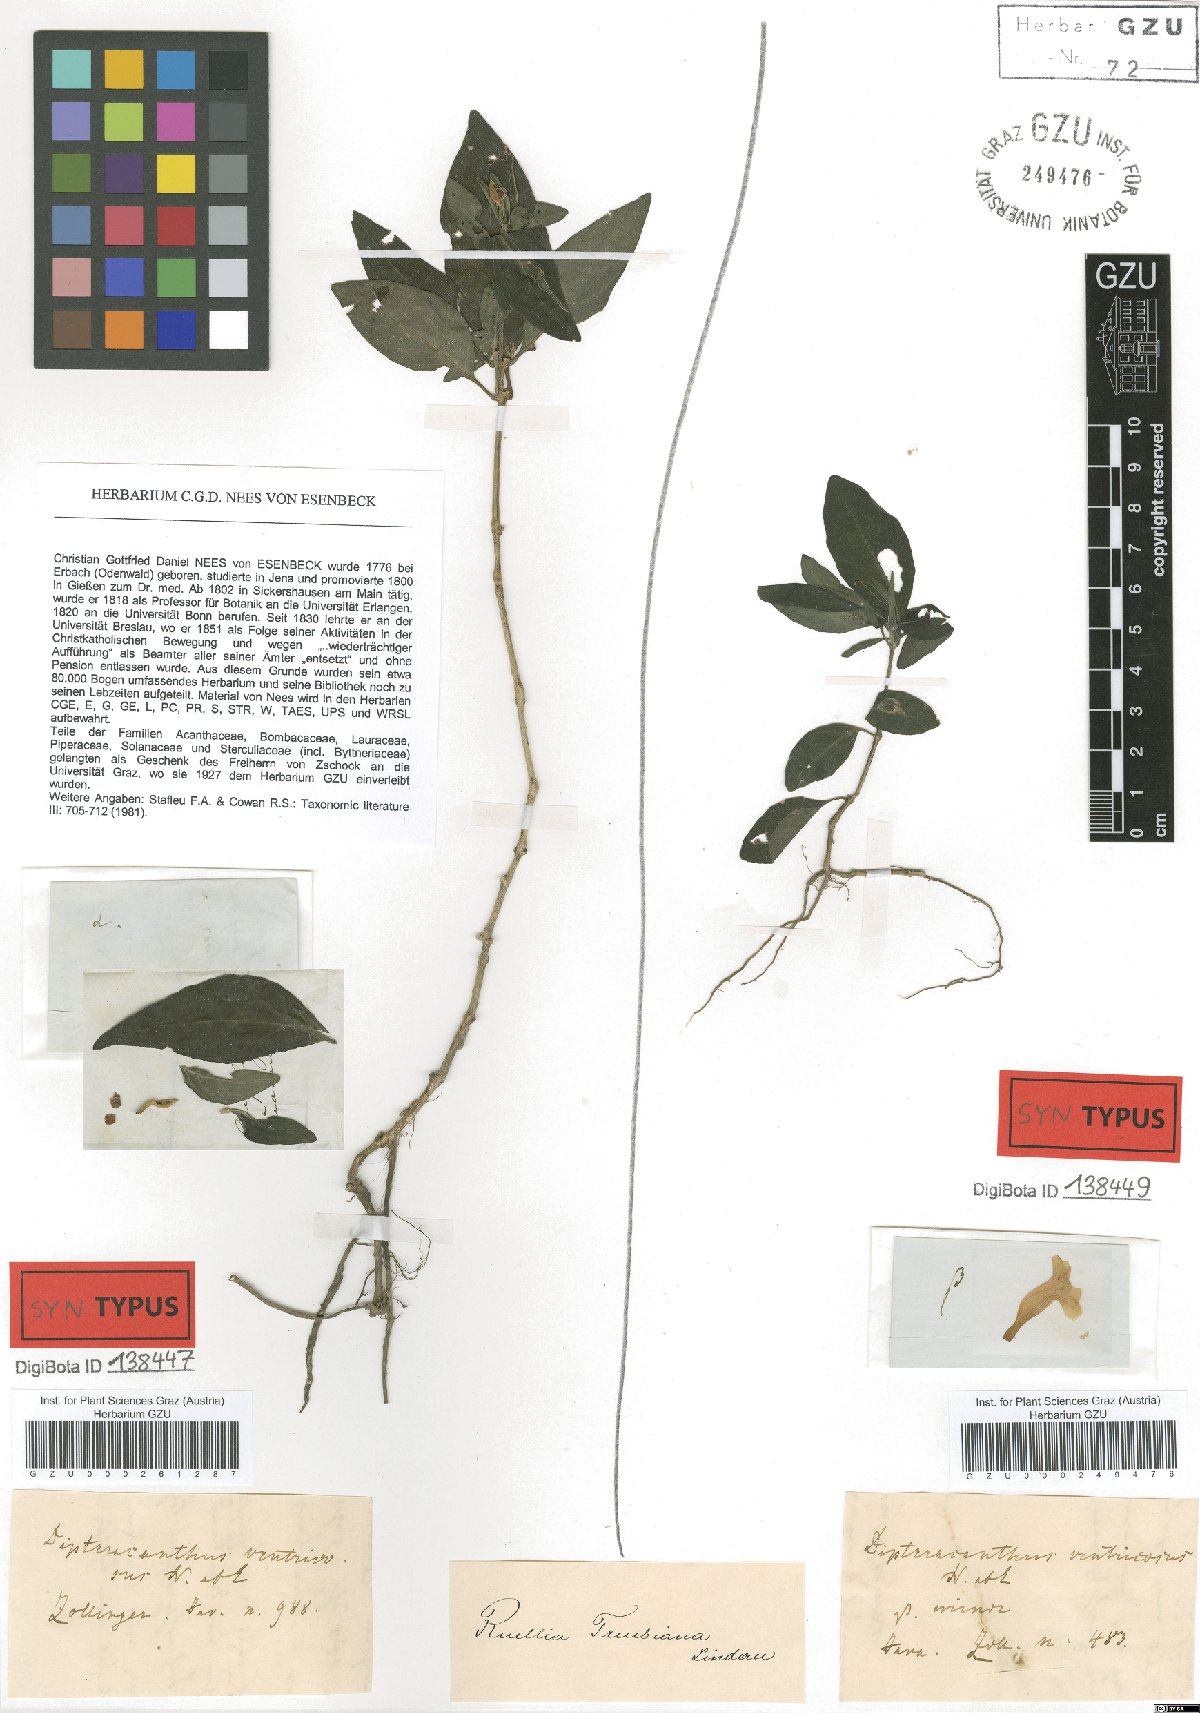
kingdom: Plantae
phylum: Tracheophyta
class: Magnoliopsida
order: Lamiales
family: Acanthaceae
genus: Ruellia
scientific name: Ruellia treubiana
